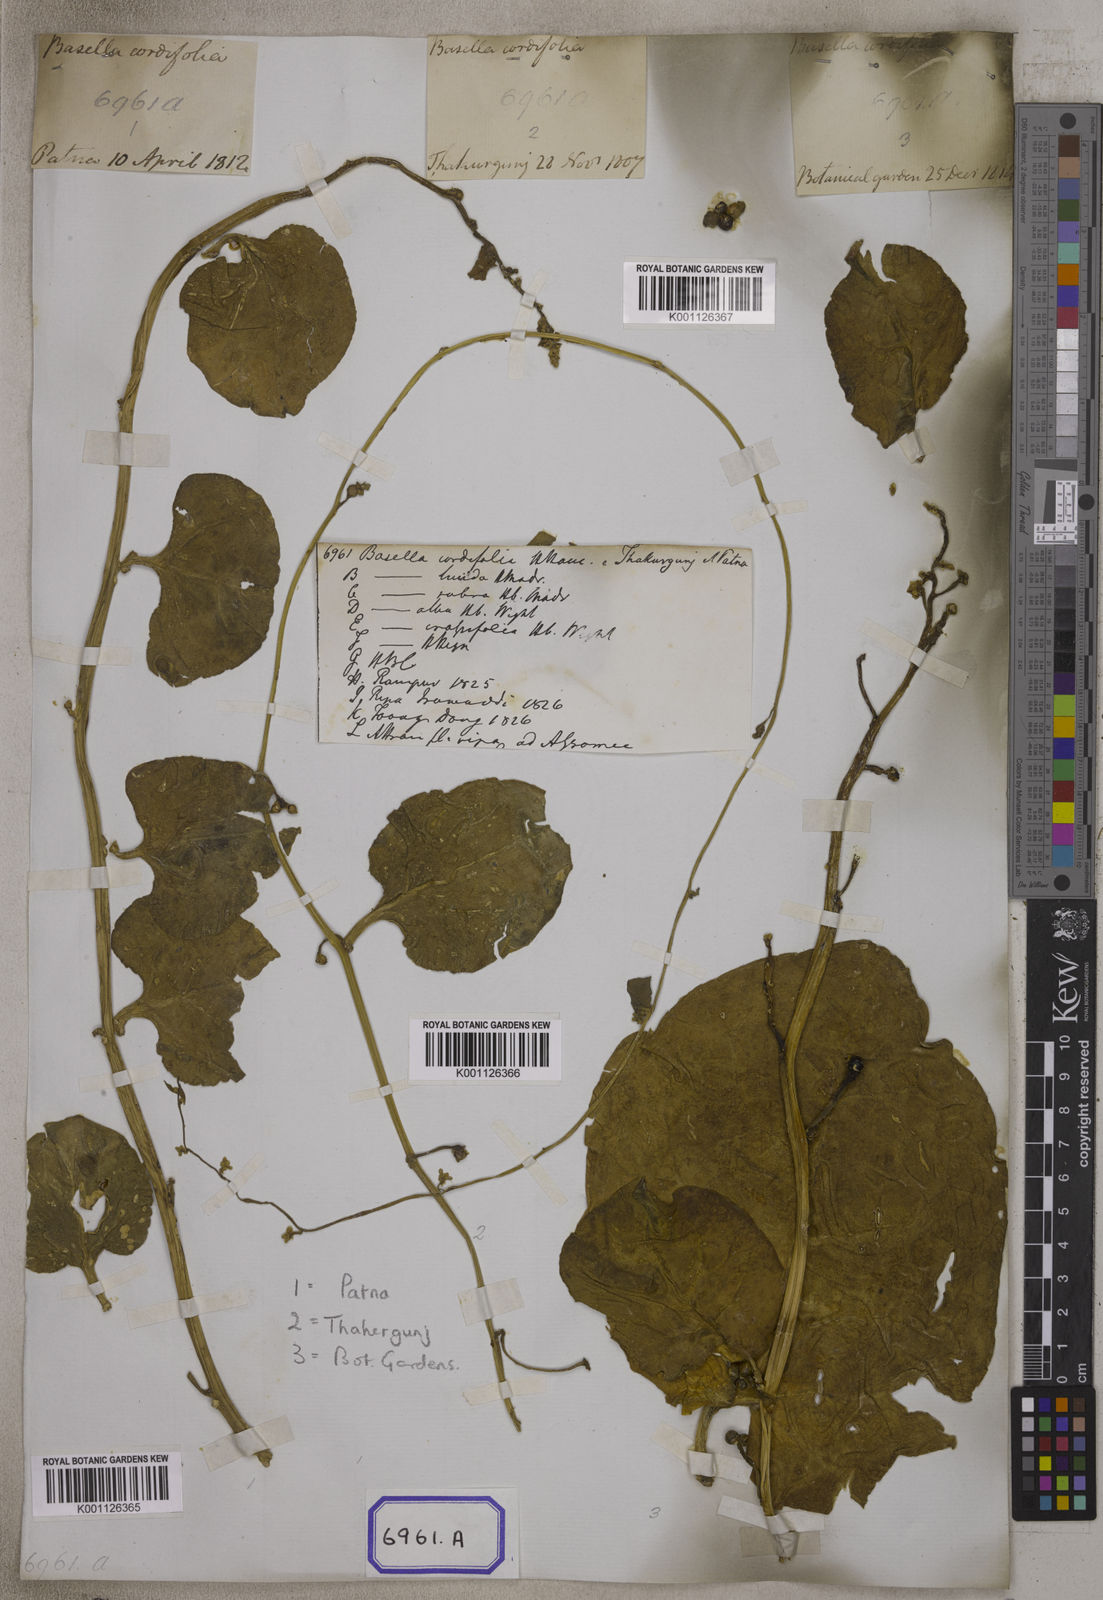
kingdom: Plantae
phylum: Tracheophyta
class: Magnoliopsida
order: Caryophyllales
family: Basellaceae
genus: Basella
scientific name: Basella alba
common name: Indian spinach
